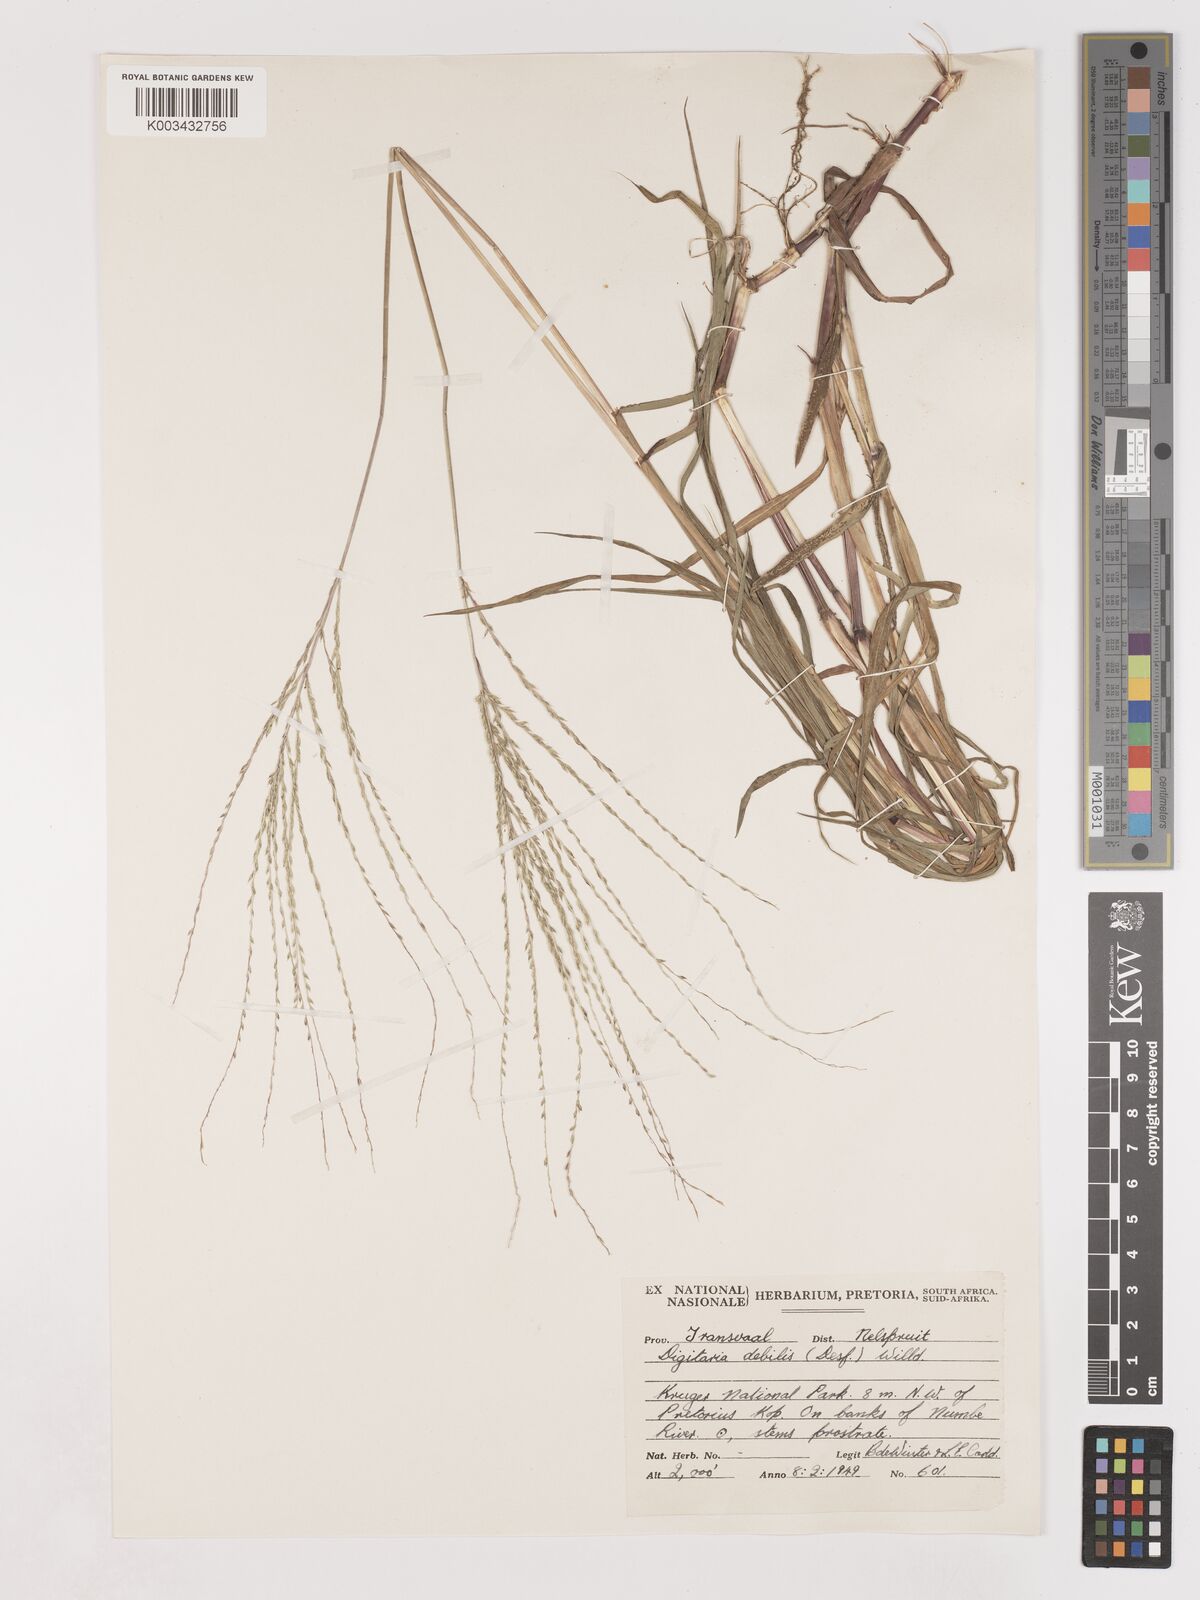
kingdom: Plantae
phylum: Tracheophyta
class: Liliopsida
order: Poales
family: Poaceae
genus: Digitaria
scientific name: Digitaria debilis
